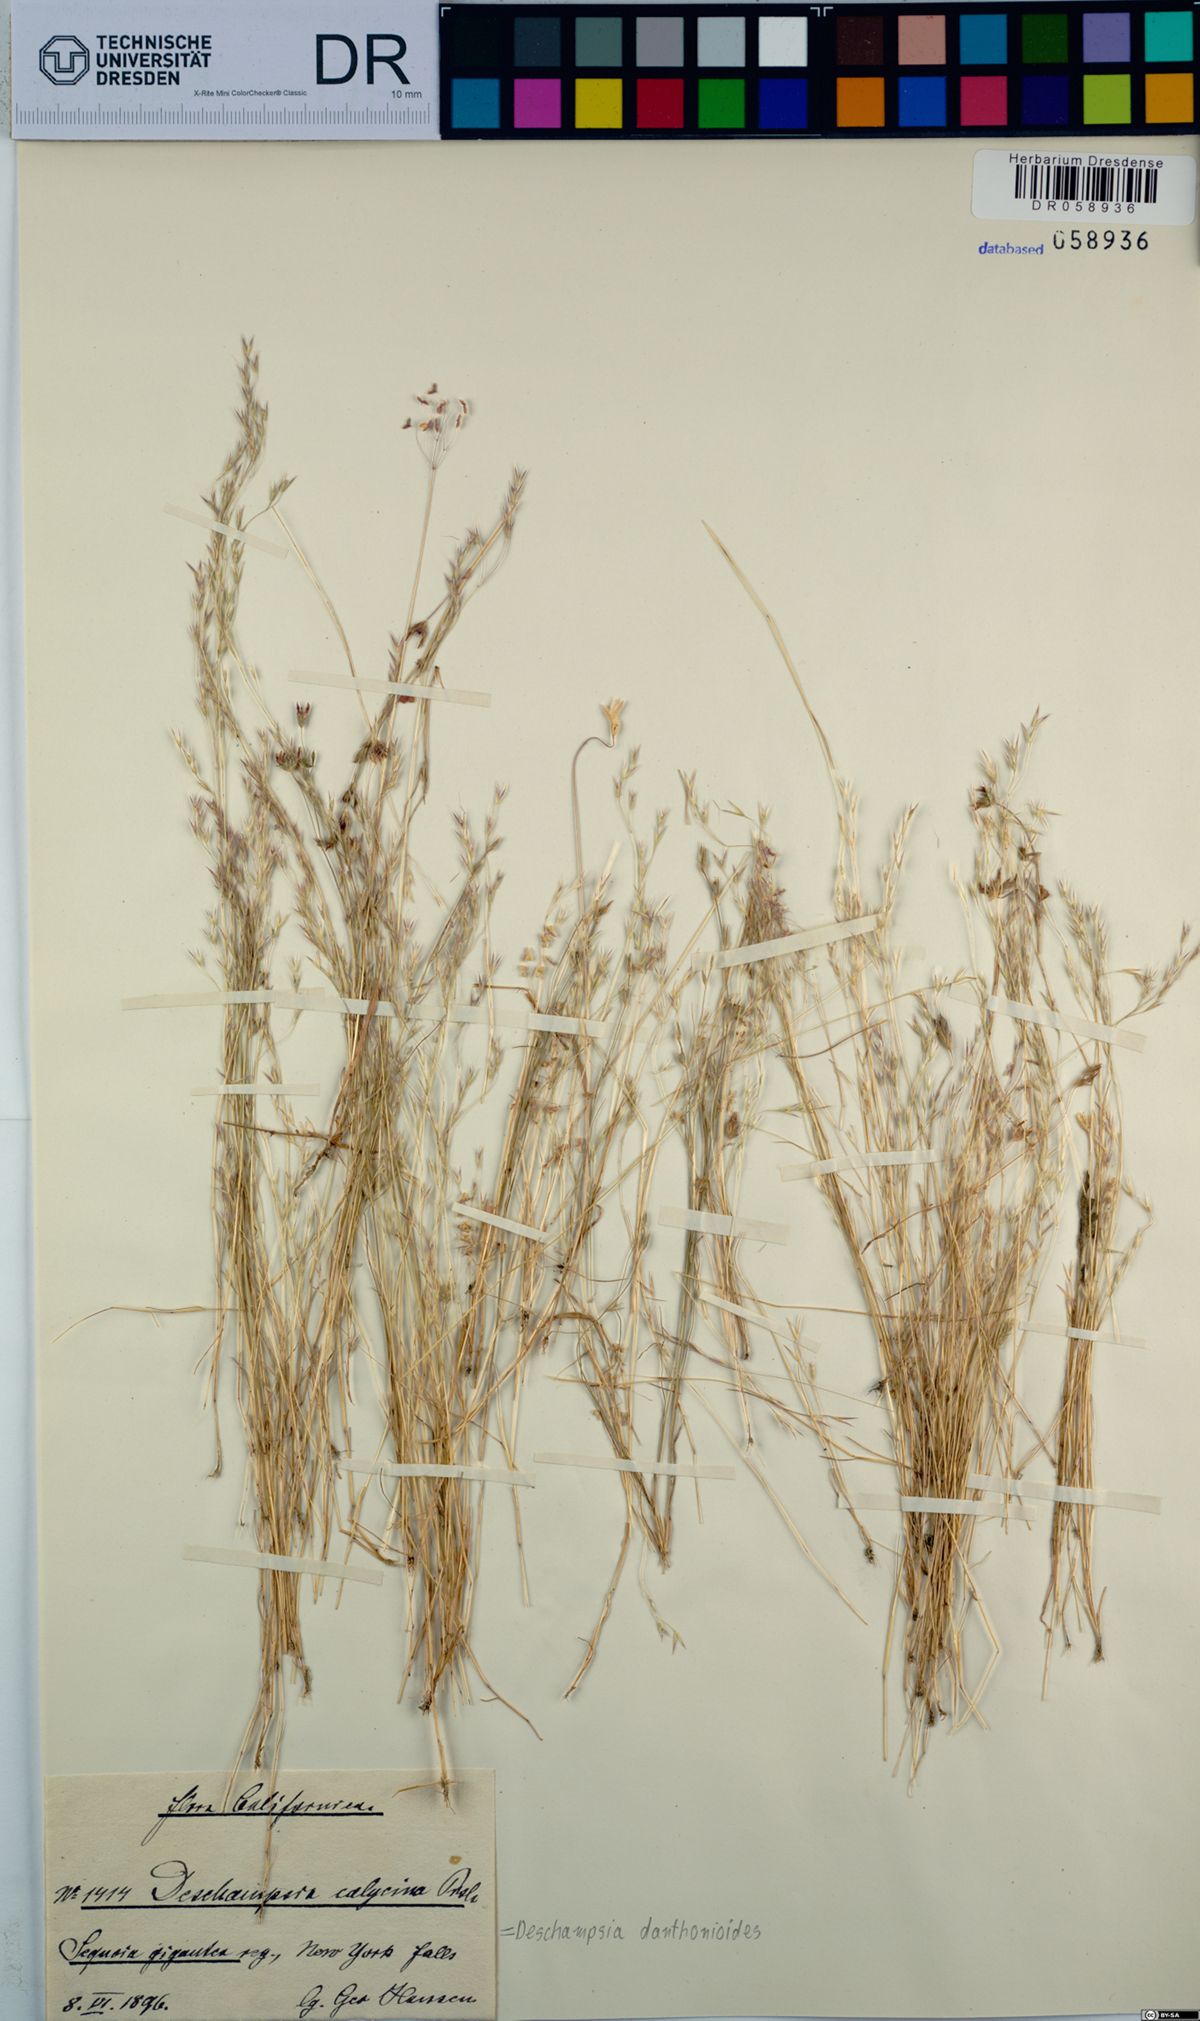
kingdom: Plantae
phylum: Tracheophyta
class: Liliopsida
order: Poales
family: Poaceae
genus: Deschampsia
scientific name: Deschampsia danthonioides
